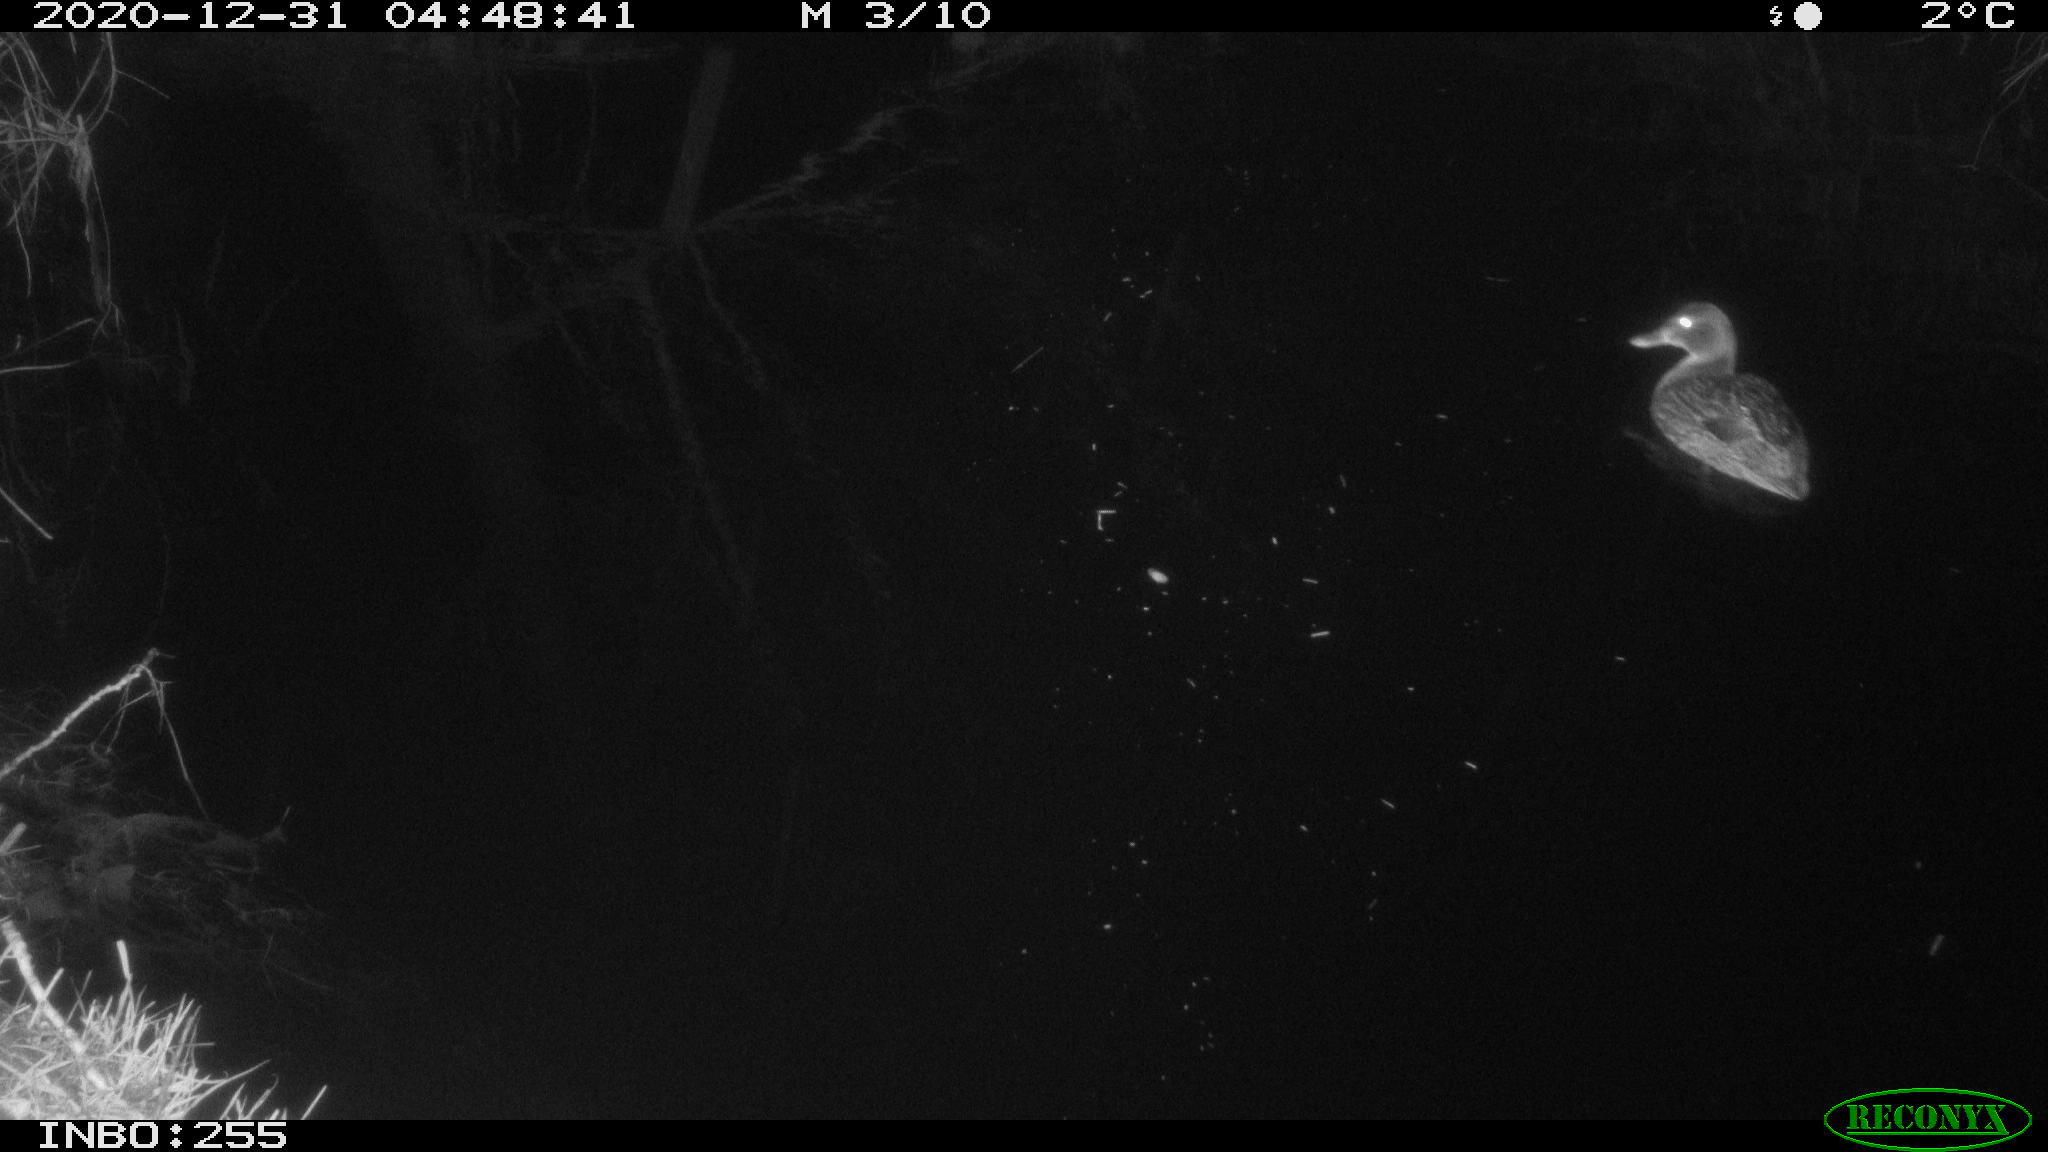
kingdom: Animalia
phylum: Chordata
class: Aves
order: Anseriformes
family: Anatidae
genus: Anas
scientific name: Anas platyrhynchos
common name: Mallard
